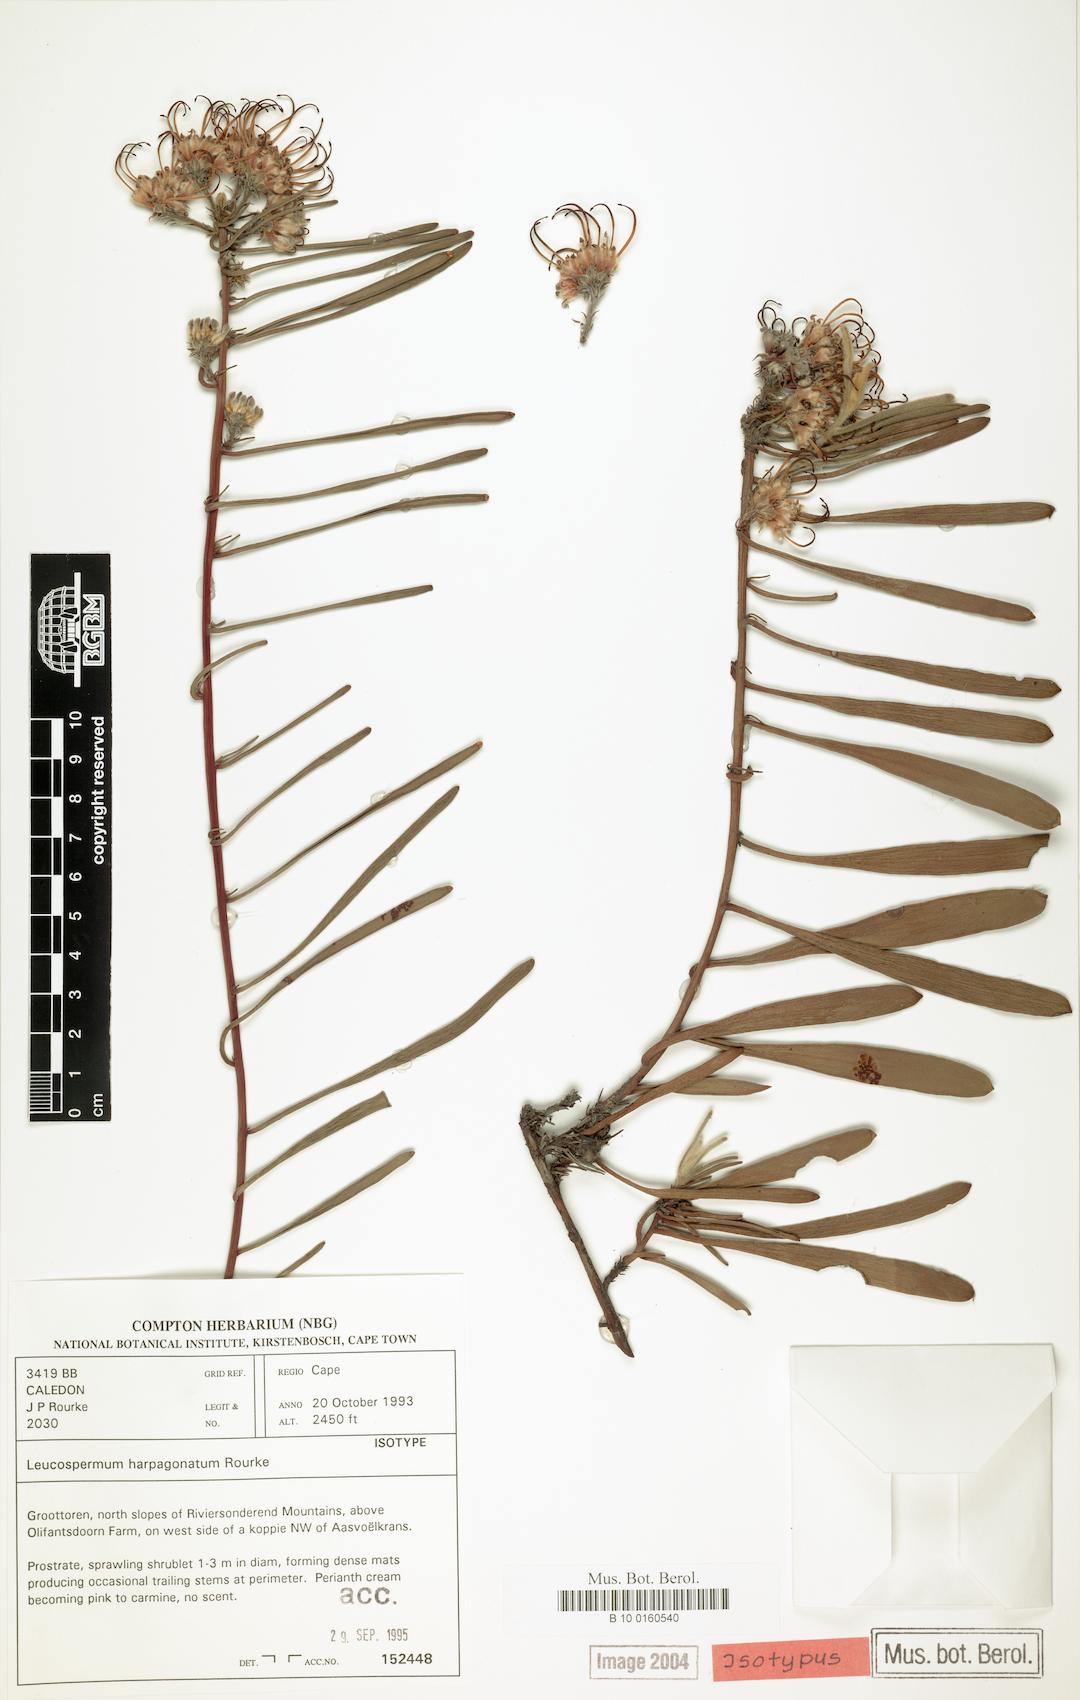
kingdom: Plantae
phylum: Tracheophyta
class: Magnoliopsida
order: Proteales
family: Proteaceae
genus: Leucospermum
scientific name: Leucospermum harpagonatum
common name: Mcgregor pincushion
